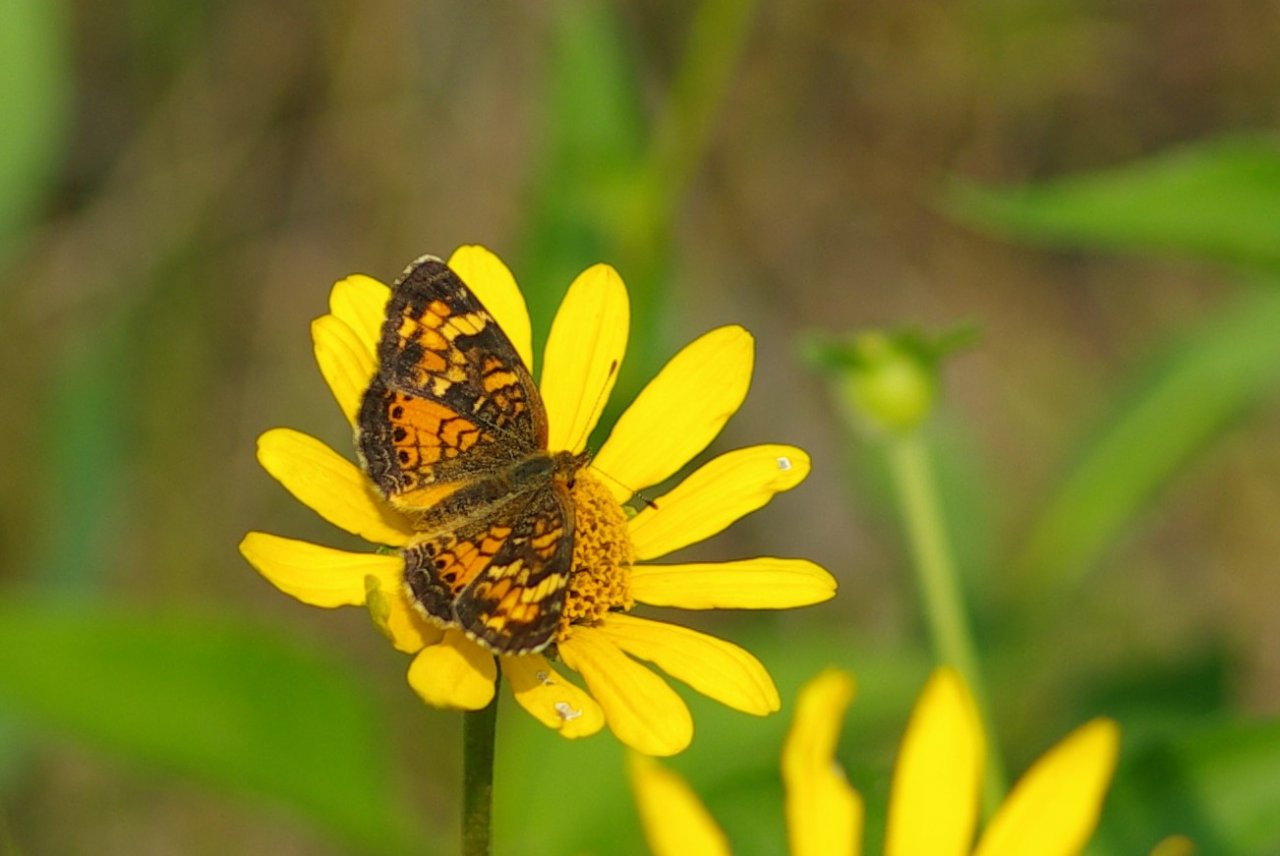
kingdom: Animalia
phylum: Arthropoda
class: Insecta
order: Lepidoptera
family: Nymphalidae
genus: Phyciodes
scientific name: Phyciodes tharos
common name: Northern Crescent
